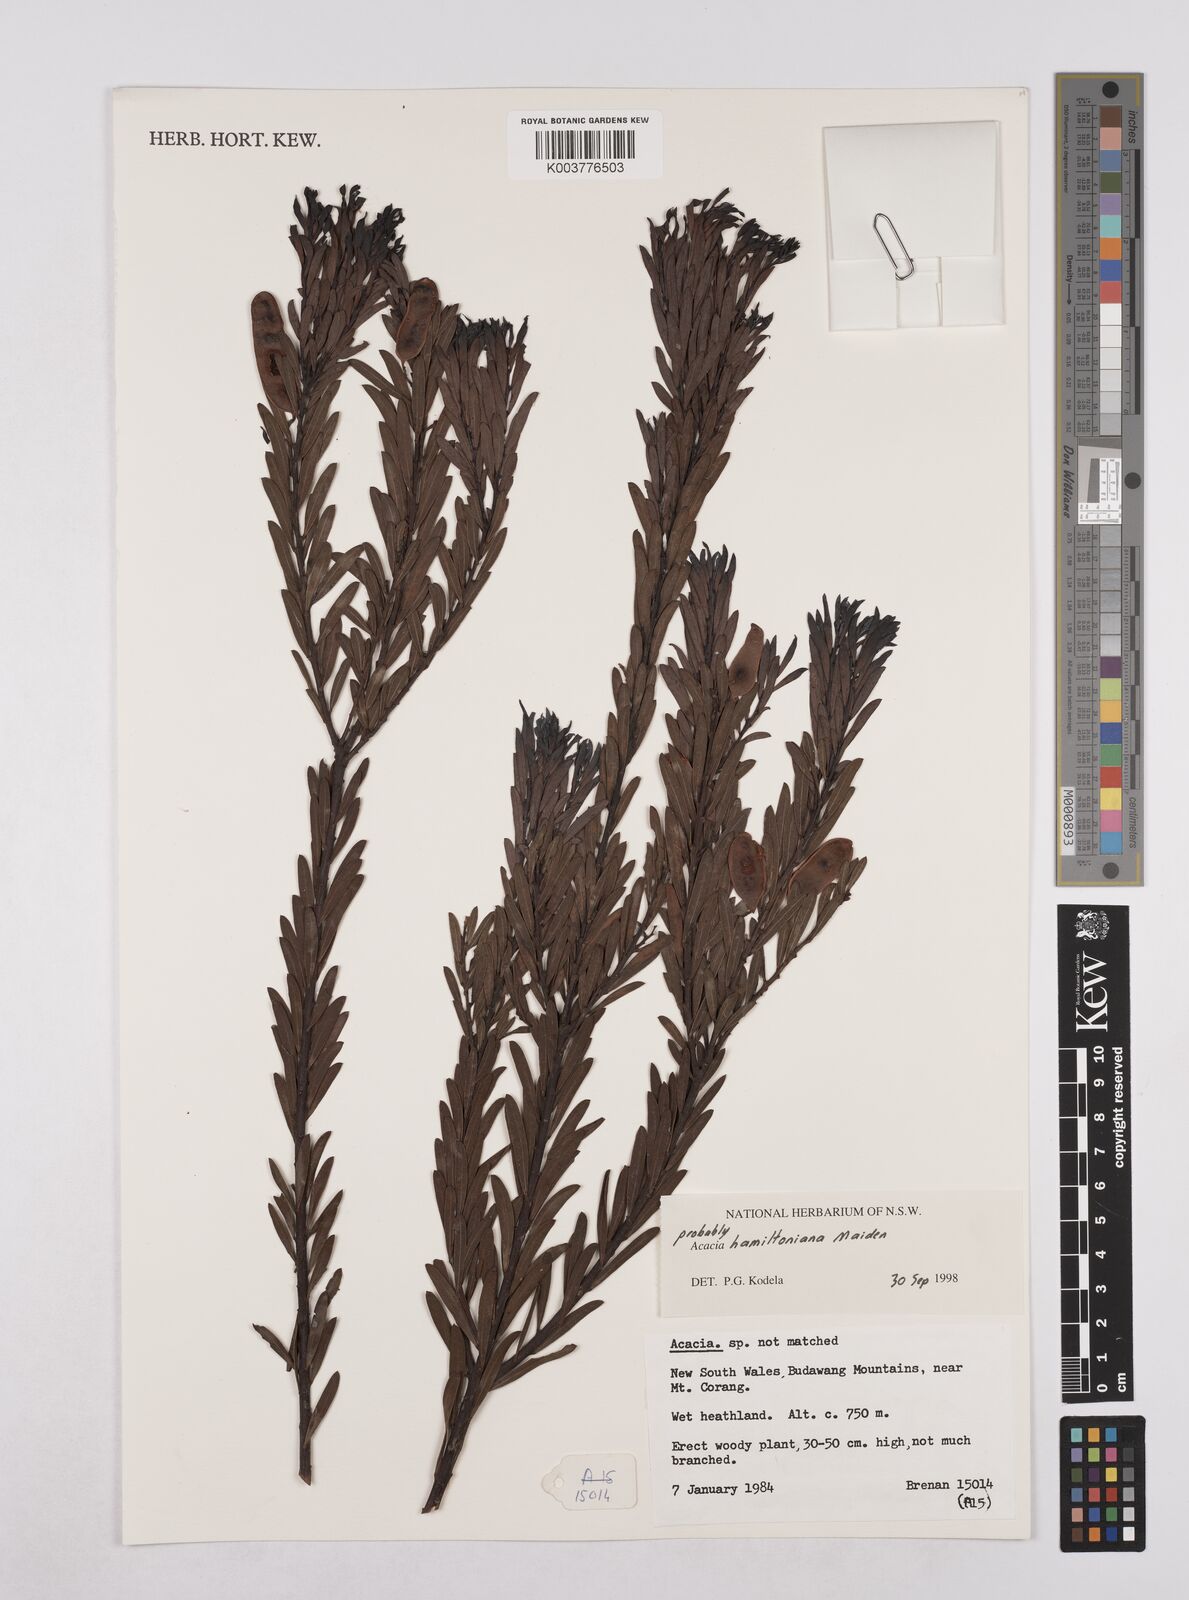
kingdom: Plantae
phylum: Tracheophyta
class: Magnoliopsida
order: Fabales
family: Fabaceae
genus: Acacia
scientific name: Acacia
